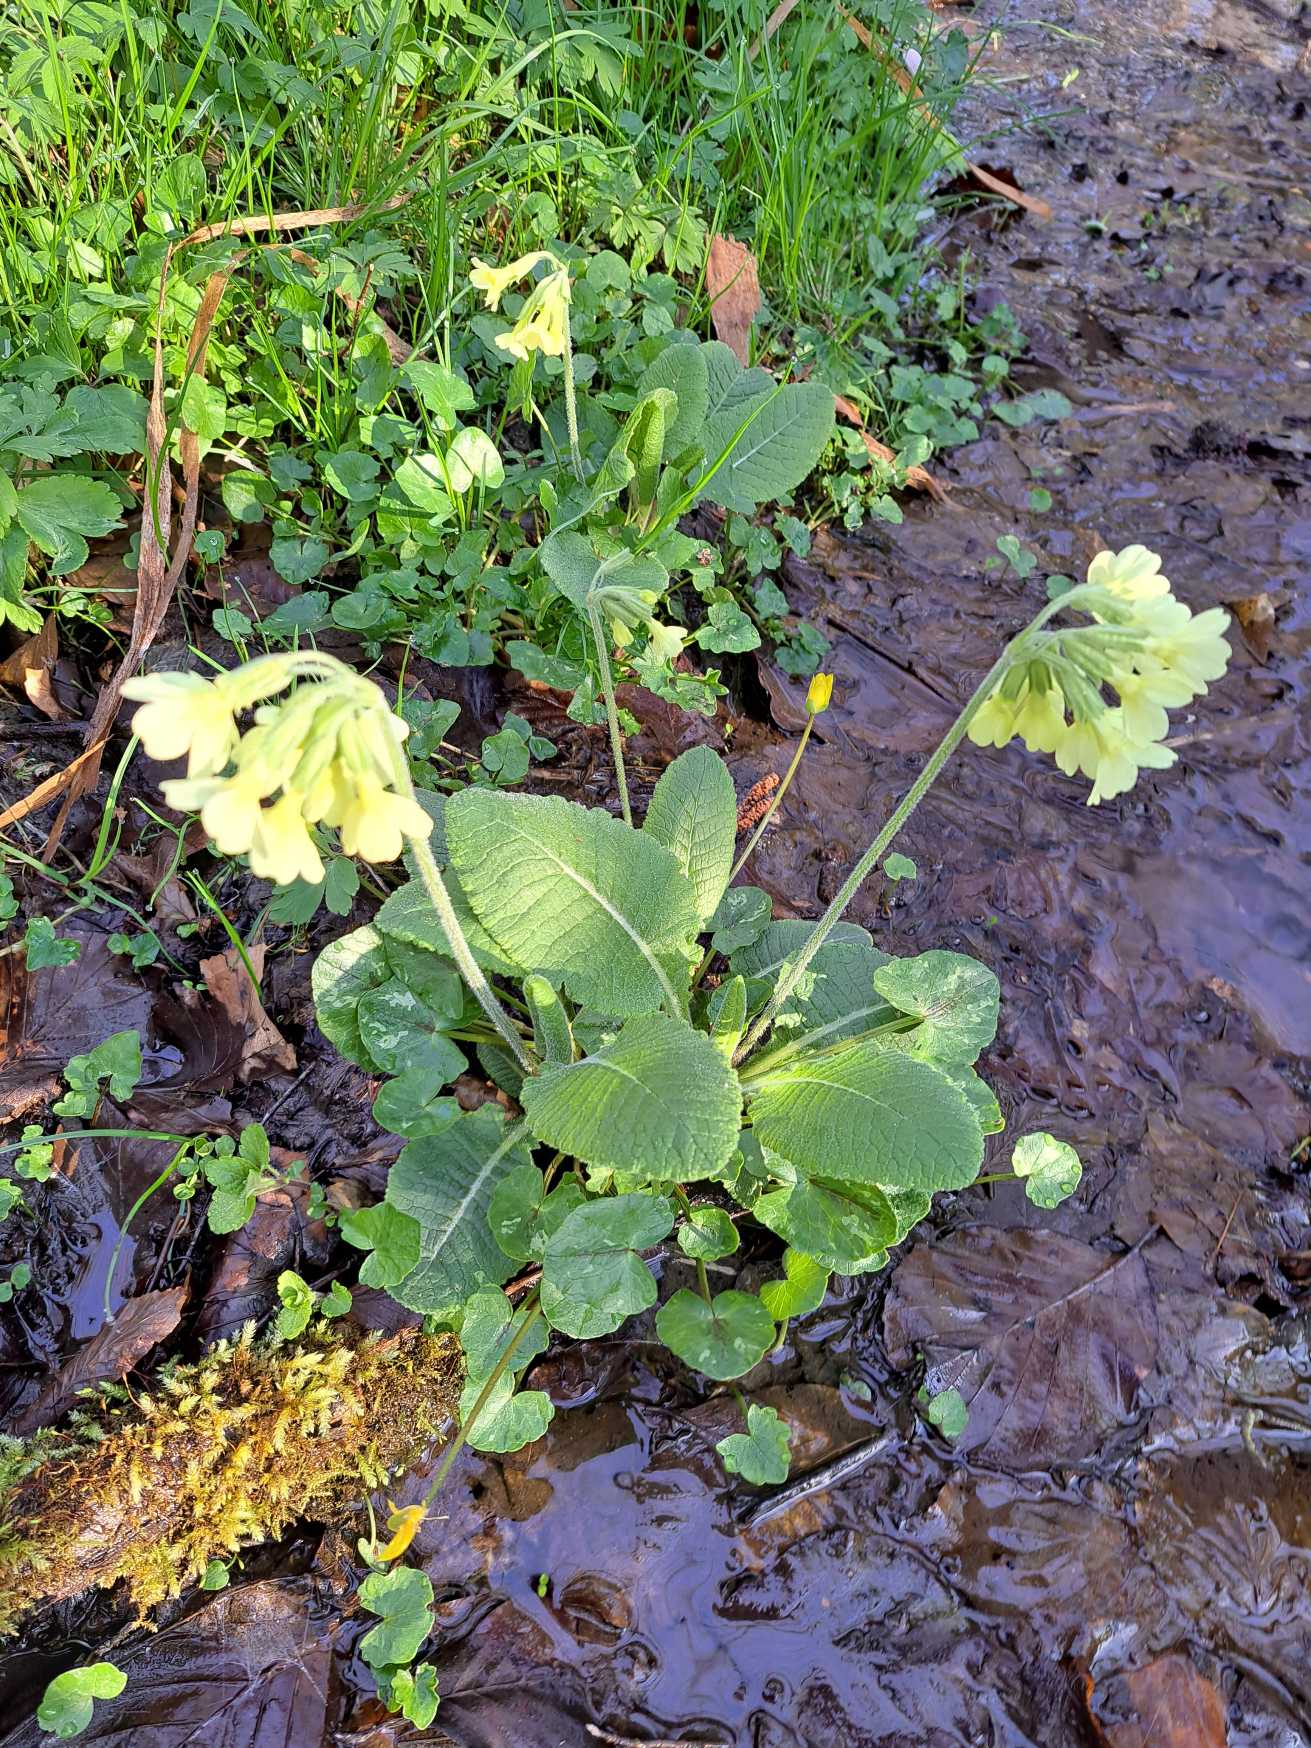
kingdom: Plantae
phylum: Tracheophyta
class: Magnoliopsida
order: Ericales
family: Primulaceae
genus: Primula
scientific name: Primula elatior
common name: Fladkravet kodriver
